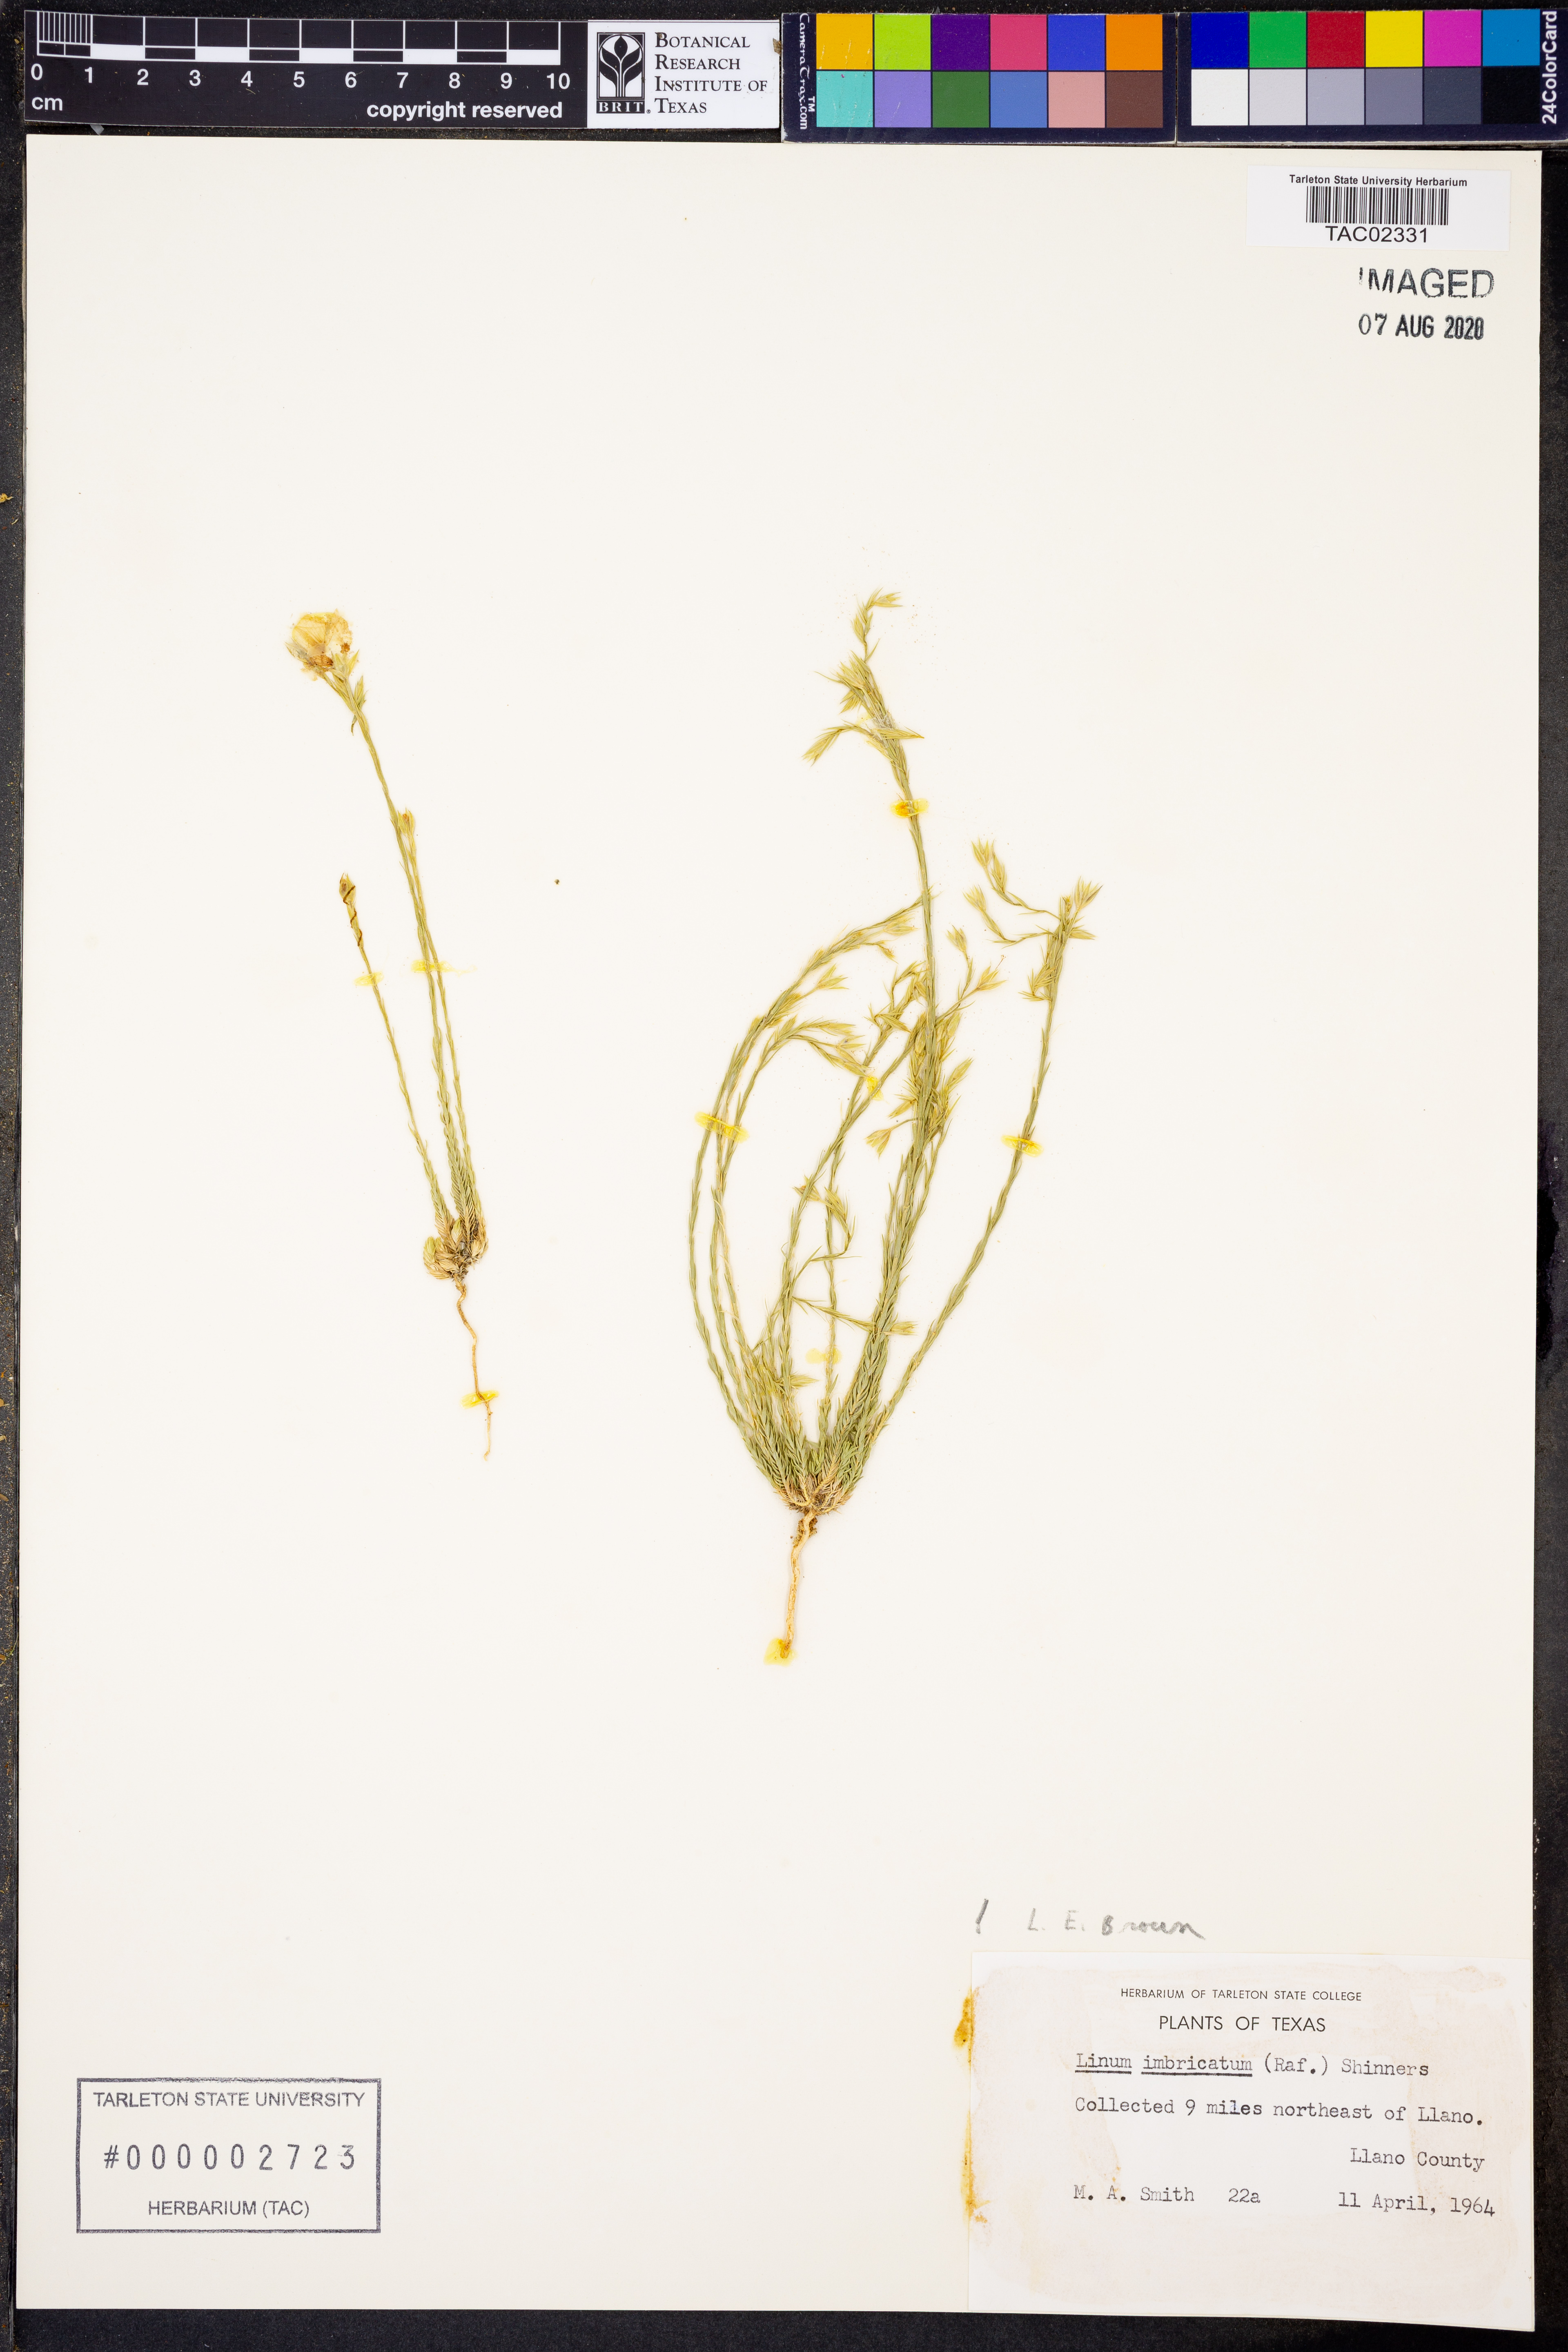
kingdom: Plantae
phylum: Tracheophyta
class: Magnoliopsida
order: Malpighiales
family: Linaceae
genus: Linum
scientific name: Linum imbricatum
